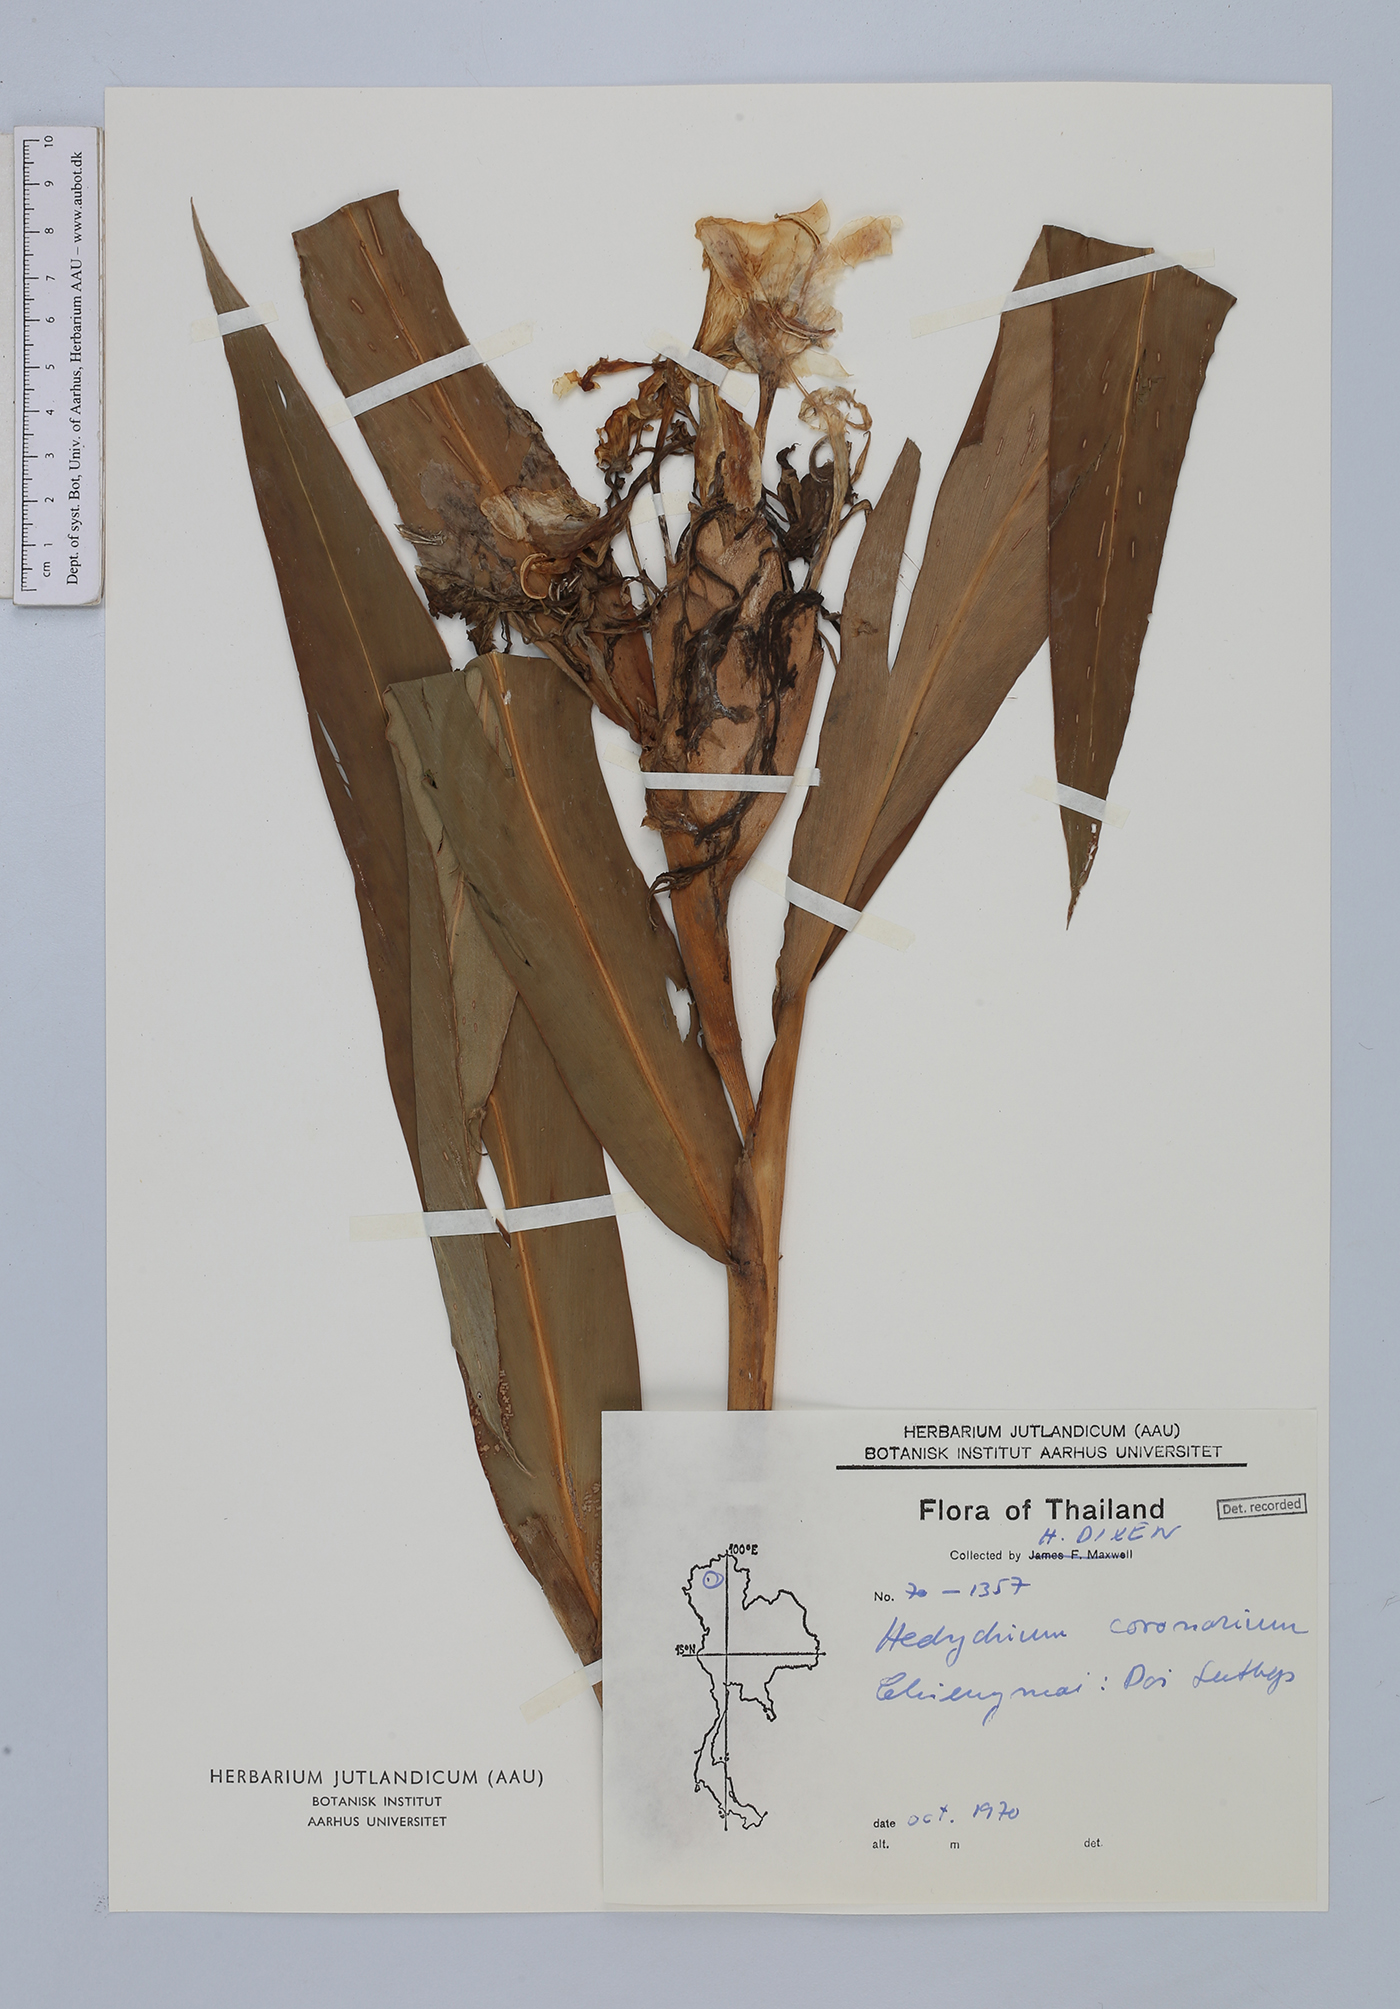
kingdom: Plantae
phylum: Tracheophyta
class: Liliopsida
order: Zingiberales
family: Zingiberaceae
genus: Hedychium
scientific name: Hedychium coronarium
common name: White garland-lily
